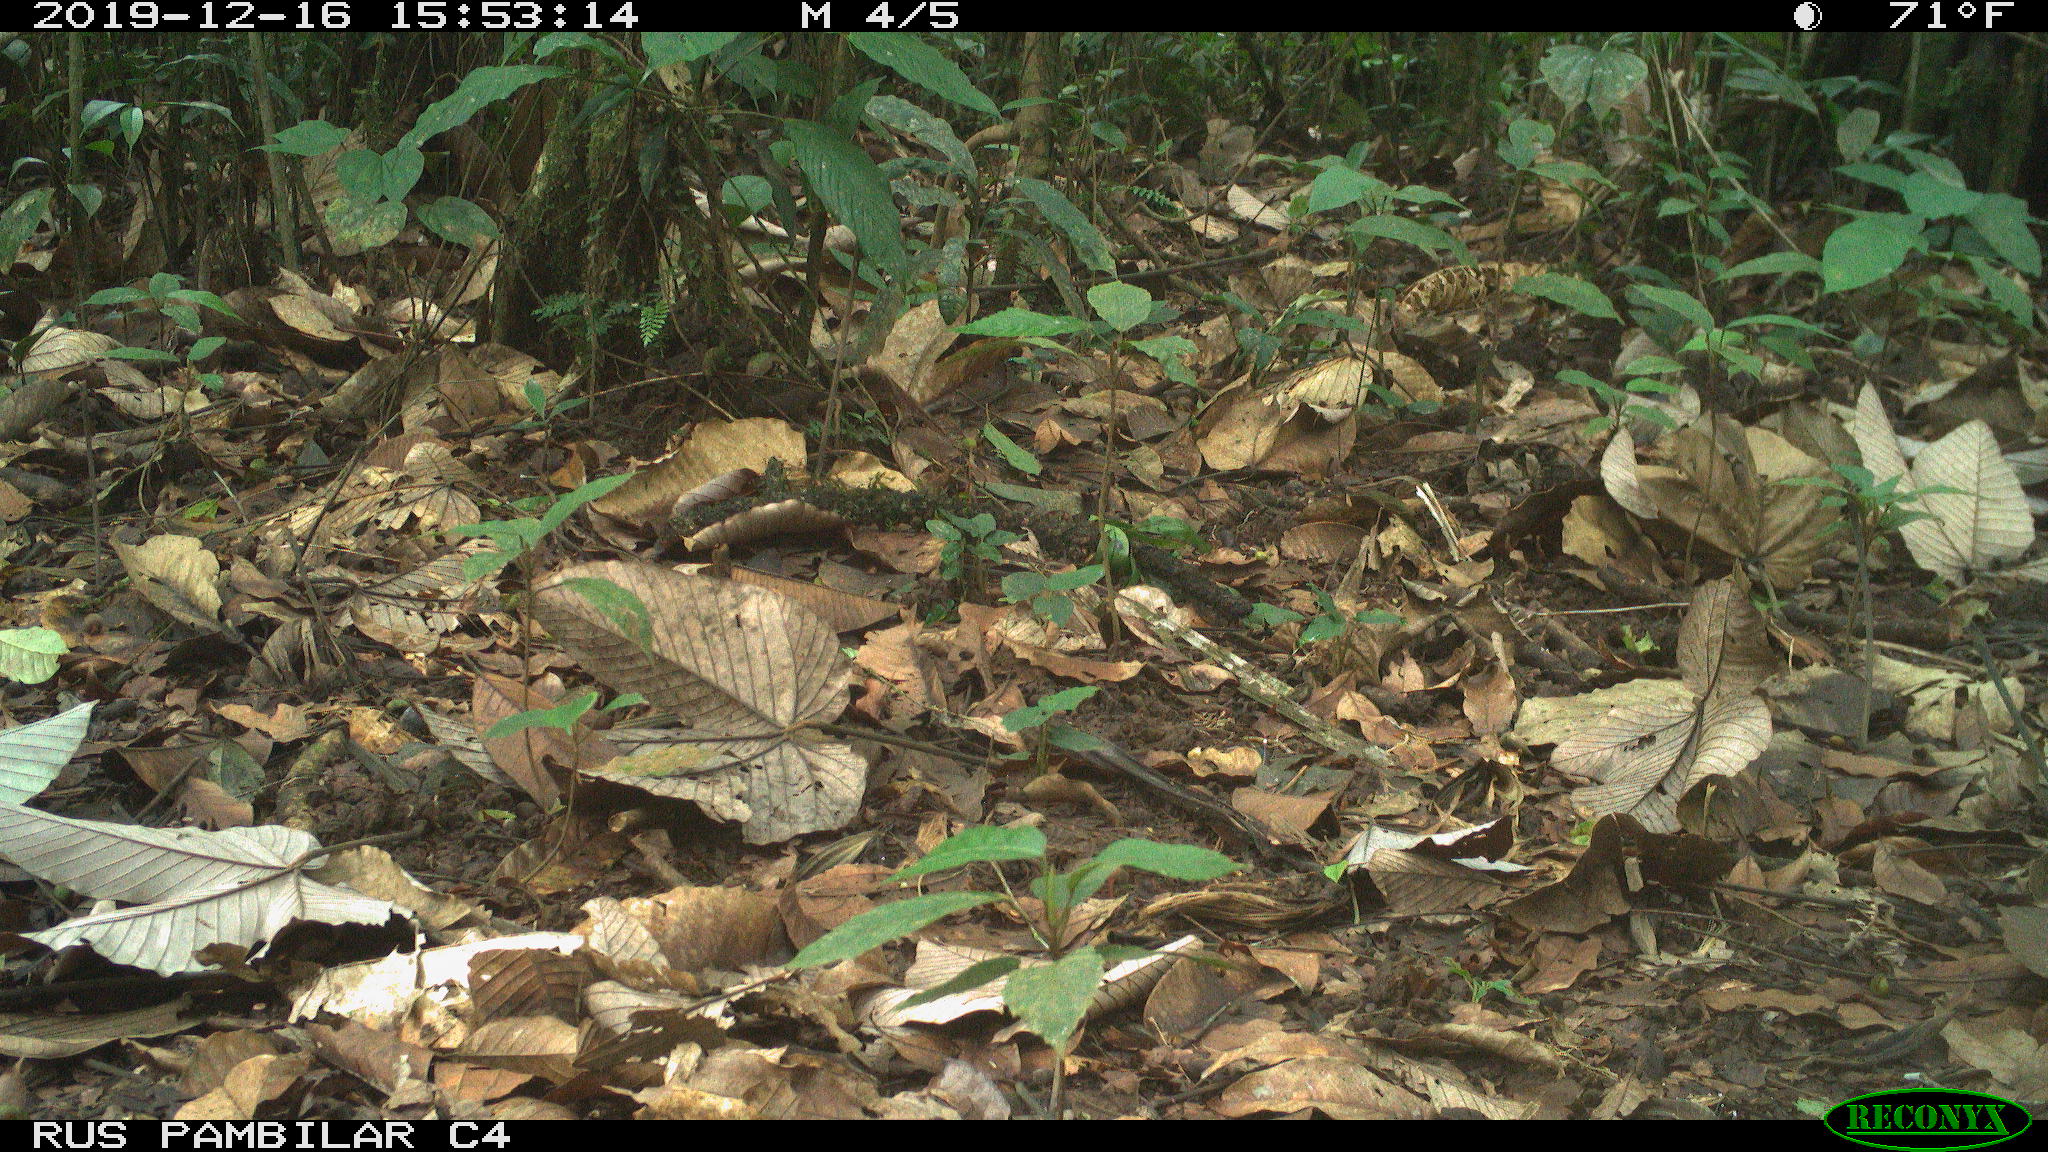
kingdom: Animalia
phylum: Chordata
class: Mammalia
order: Rodentia
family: Dasyproctidae
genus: Dasyprocta
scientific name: Dasyprocta punctata
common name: Central american agouti
